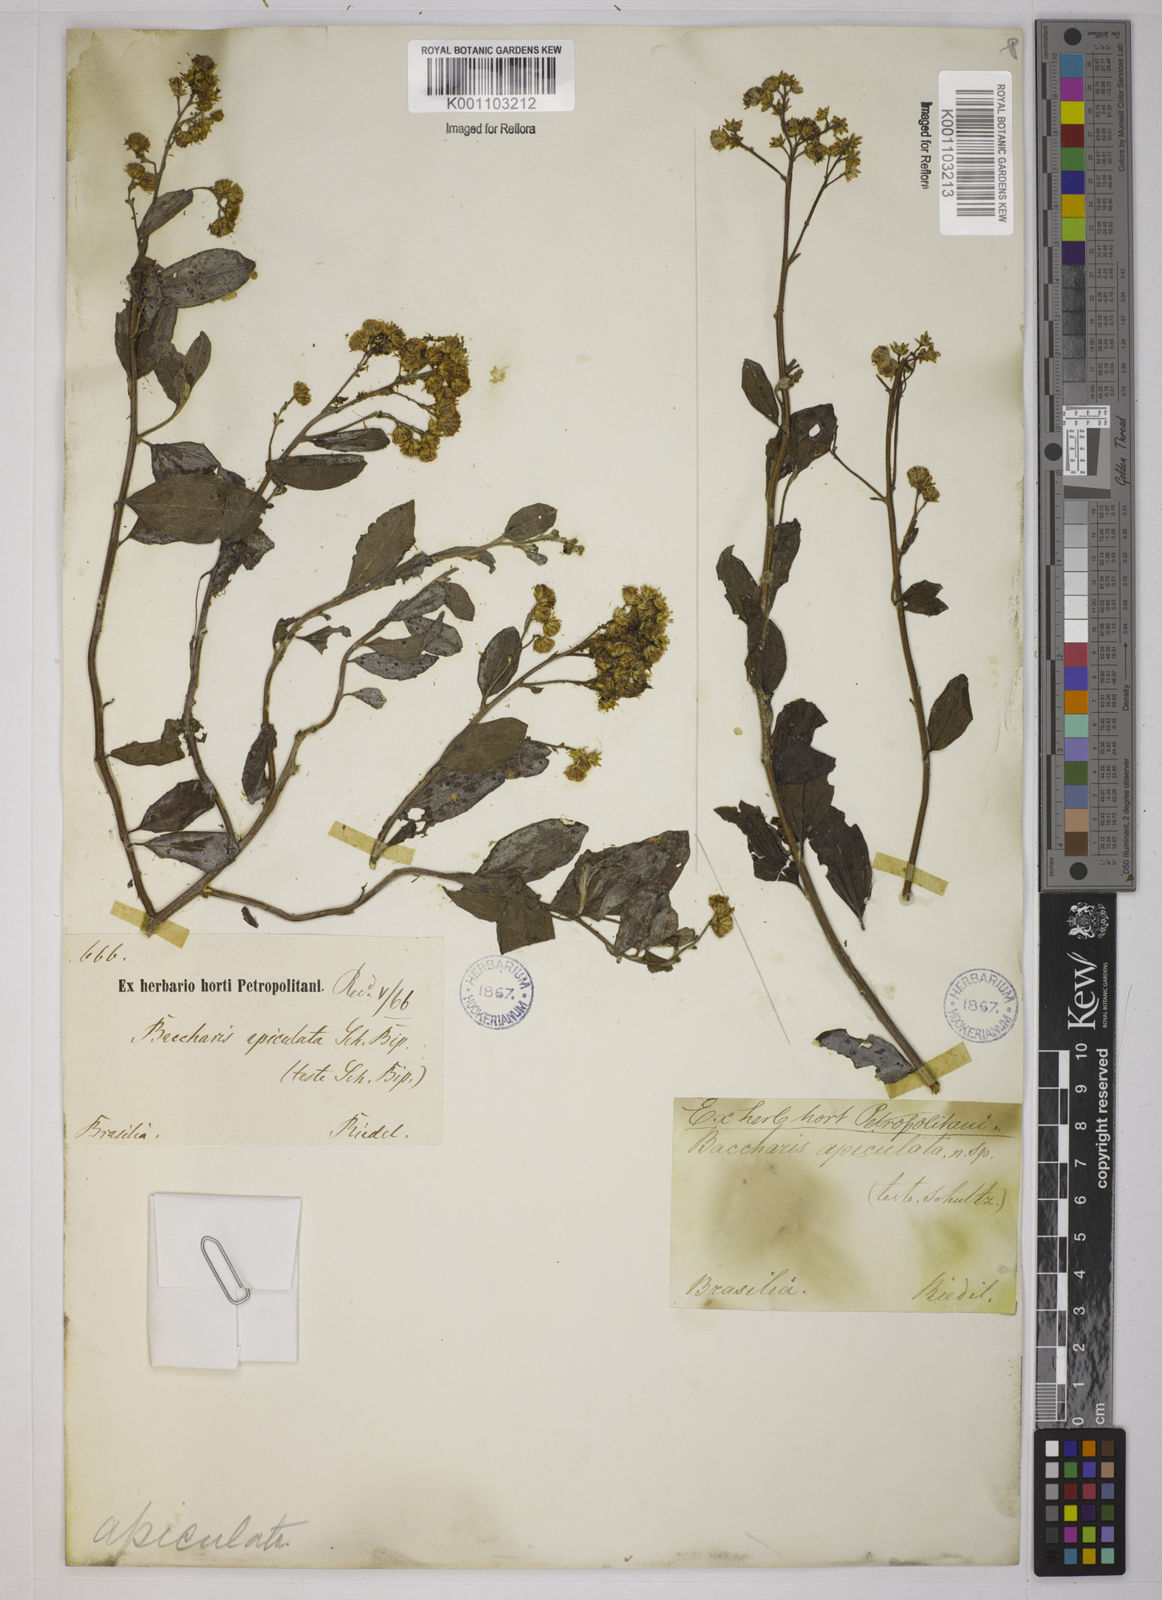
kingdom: Plantae
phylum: Tracheophyta
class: Magnoliopsida
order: Asterales
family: Asteraceae
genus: Baccharis
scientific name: Baccharis trinervis
